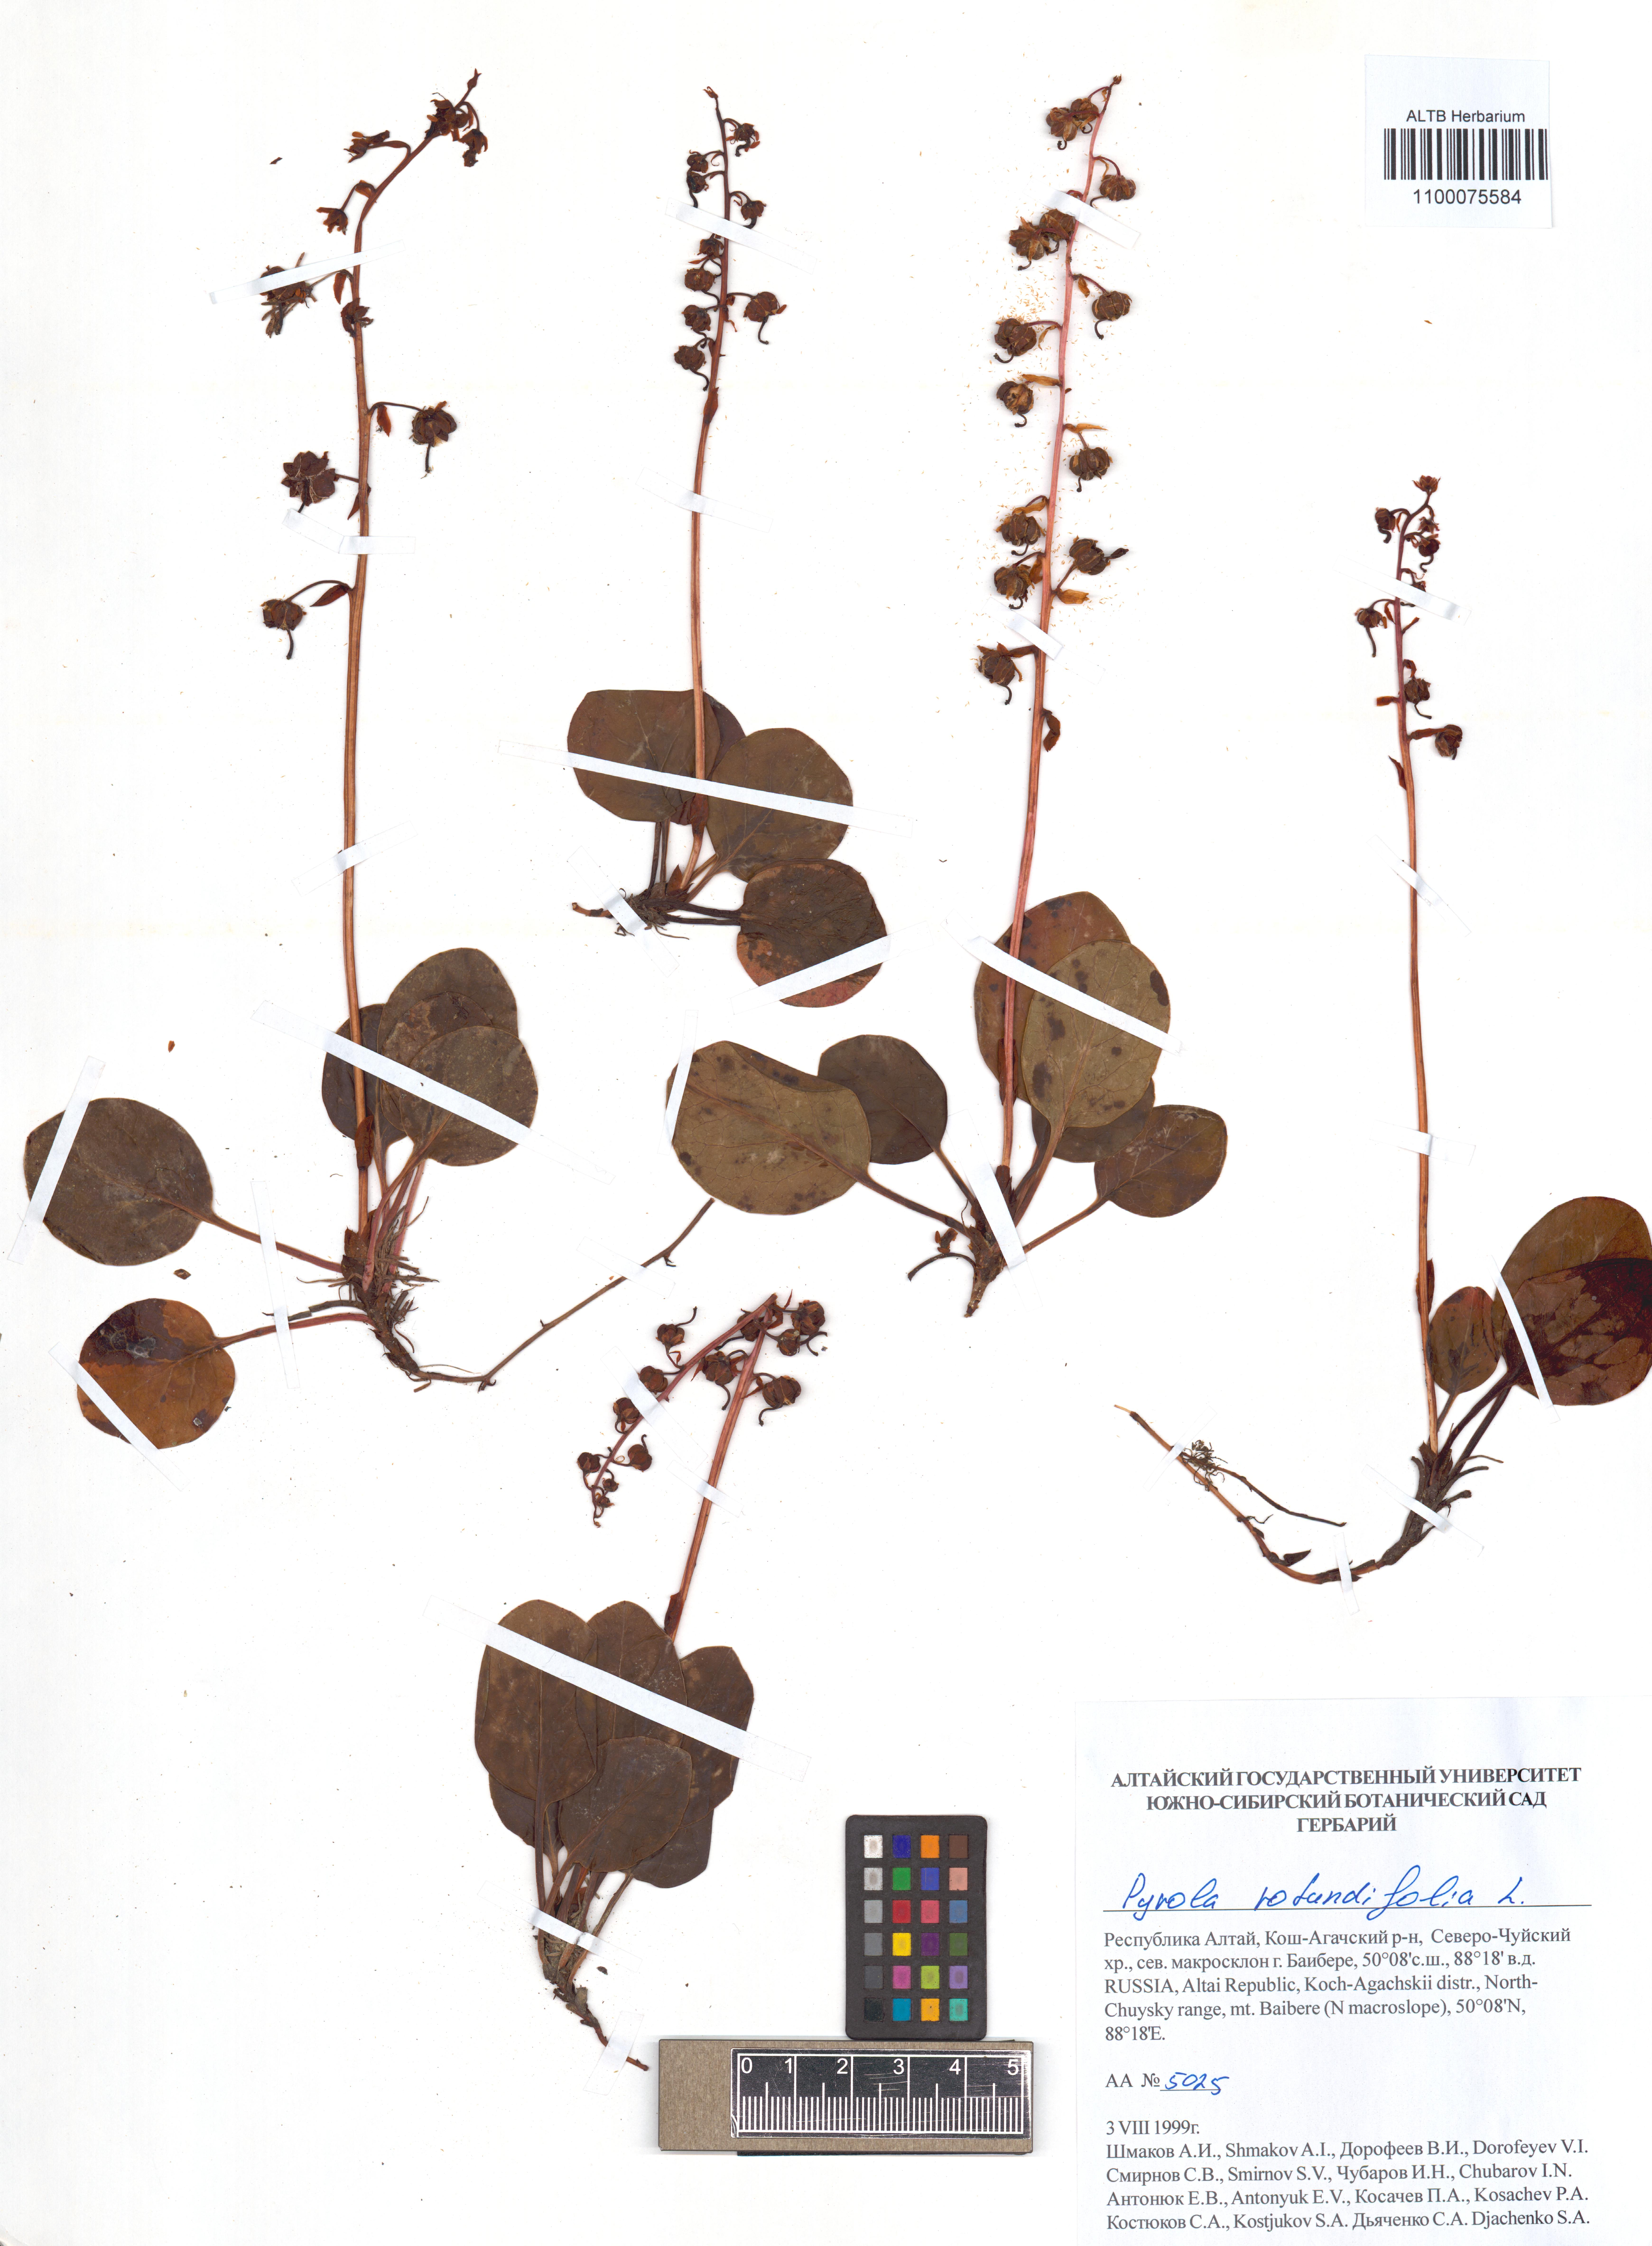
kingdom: Plantae
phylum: Tracheophyta
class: Magnoliopsida
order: Ericales
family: Ericaceae
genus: Pyrola
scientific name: Pyrola rotundifolia
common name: Round-leaved wintergreen
